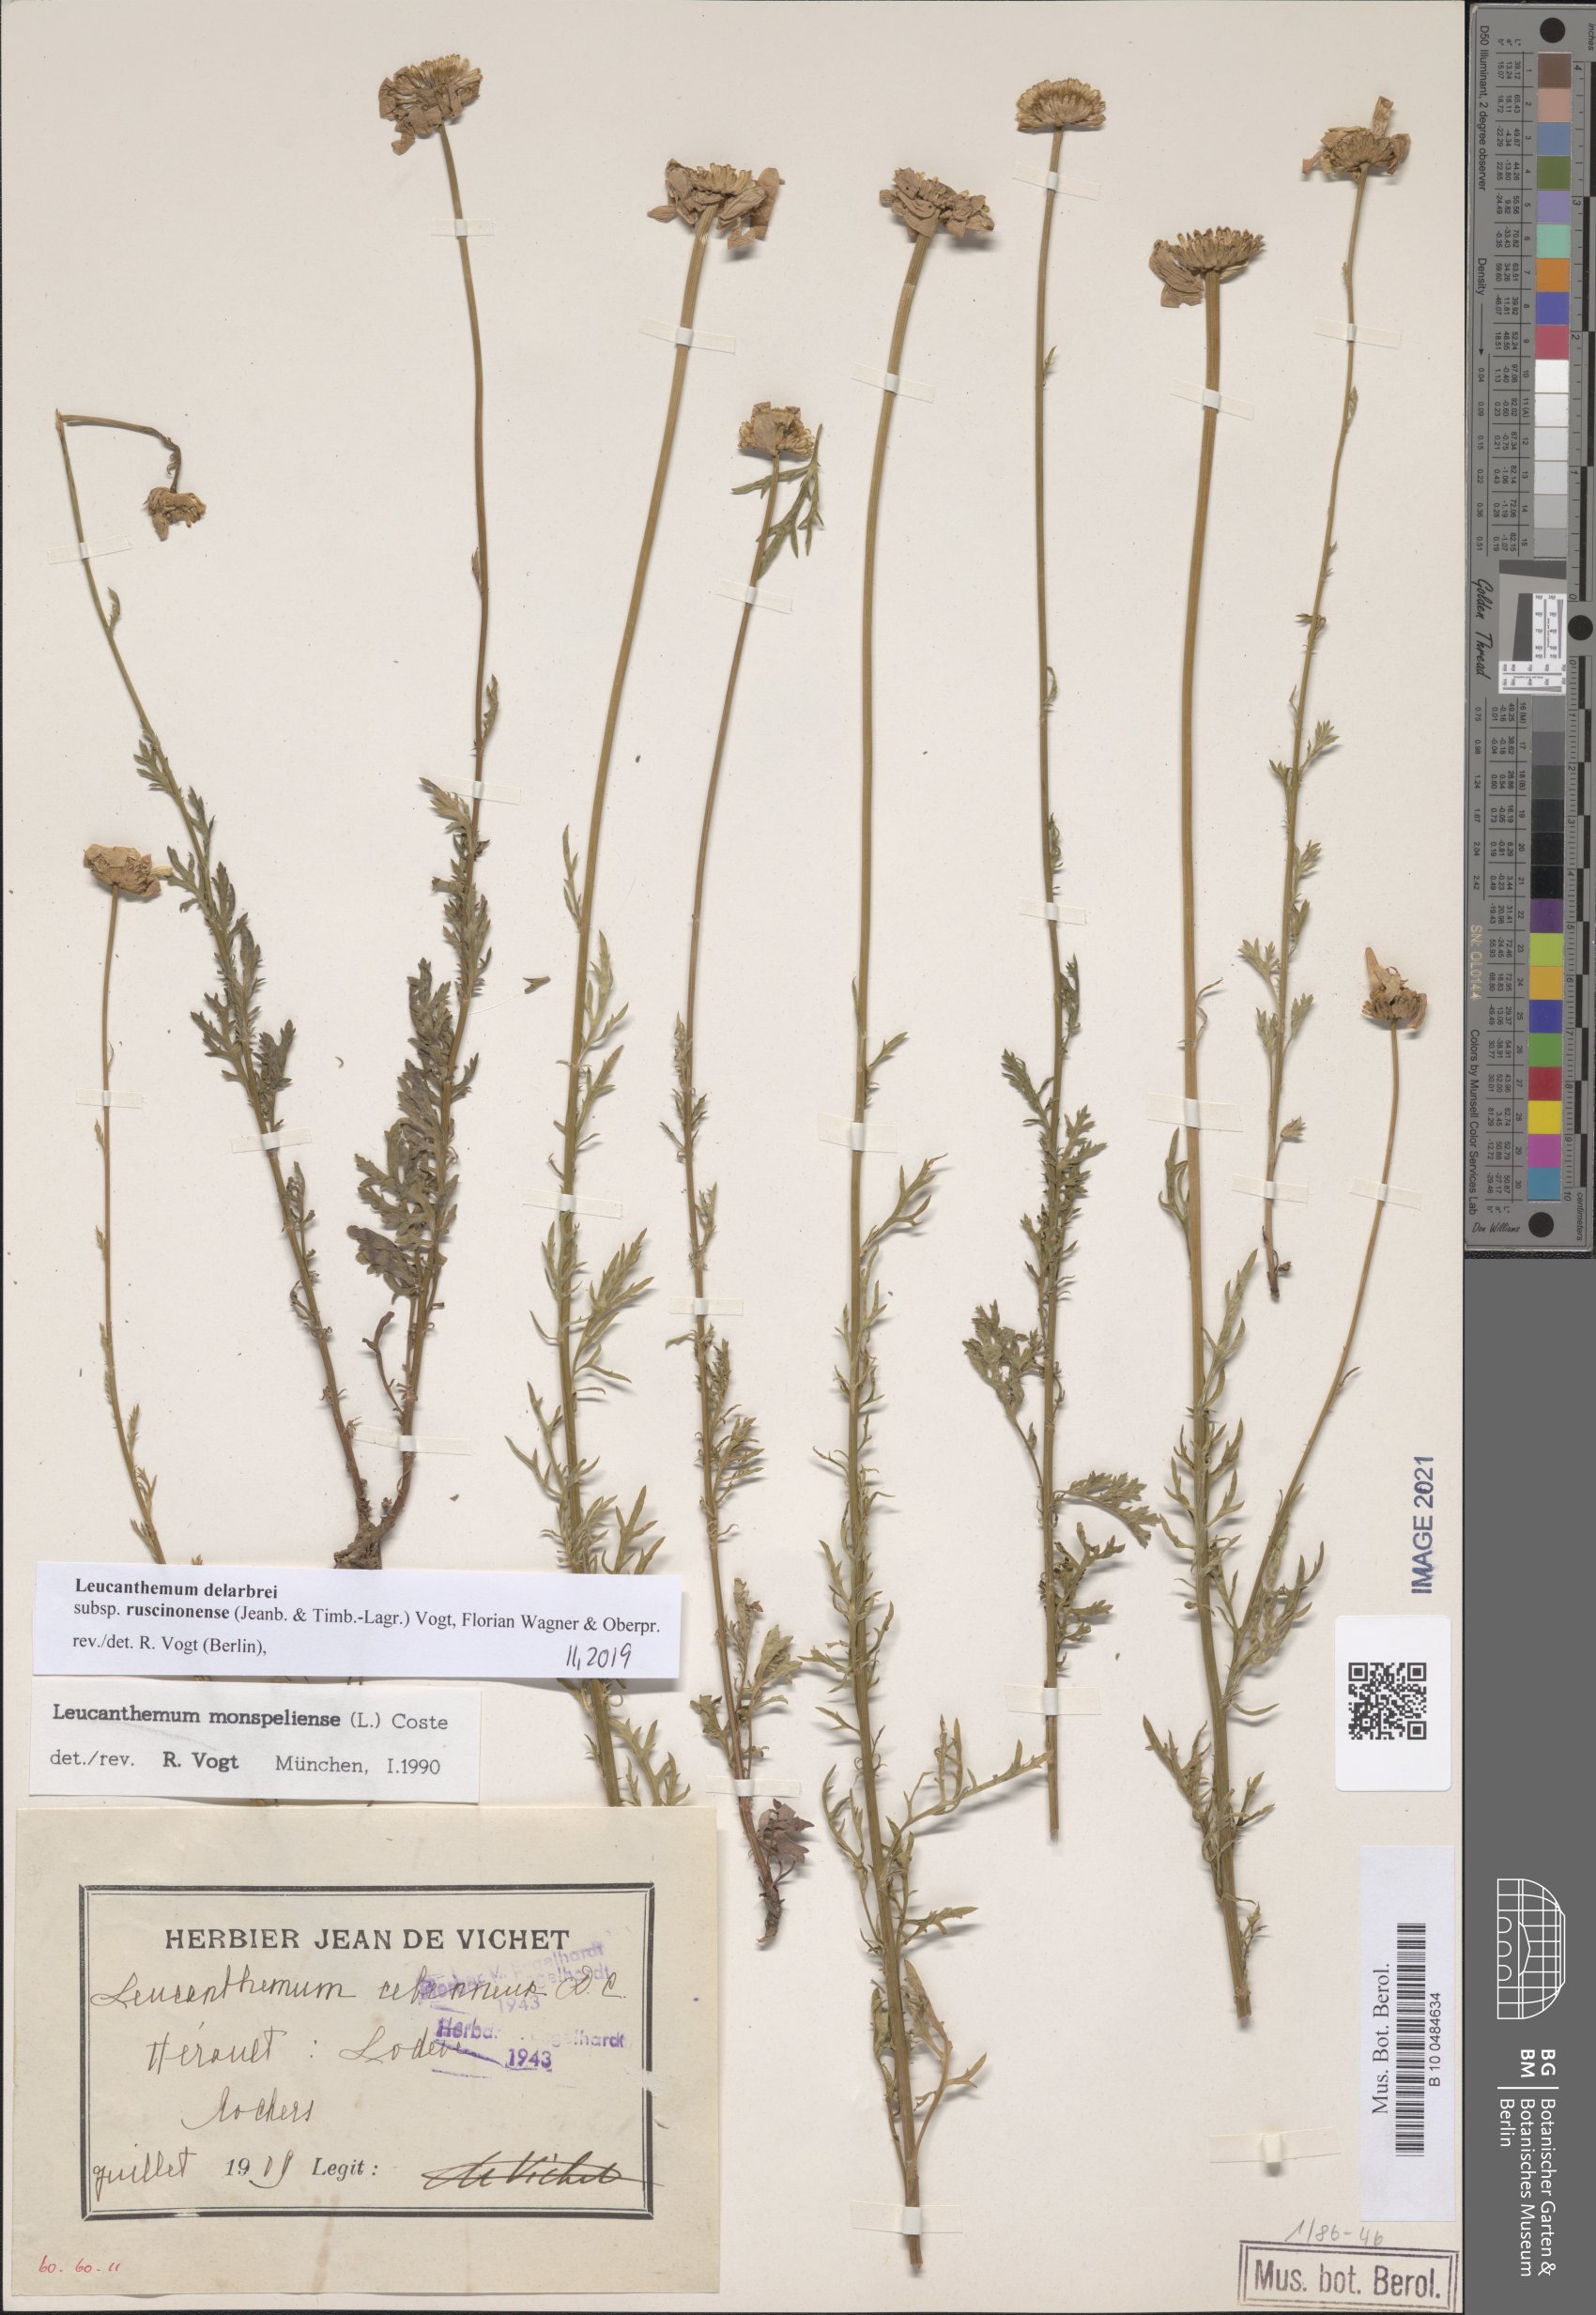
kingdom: Plantae
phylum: Tracheophyta
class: Magnoliopsida
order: Asterales
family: Asteraceae
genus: Leucanthemum
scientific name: Leucanthemum delarbrei
